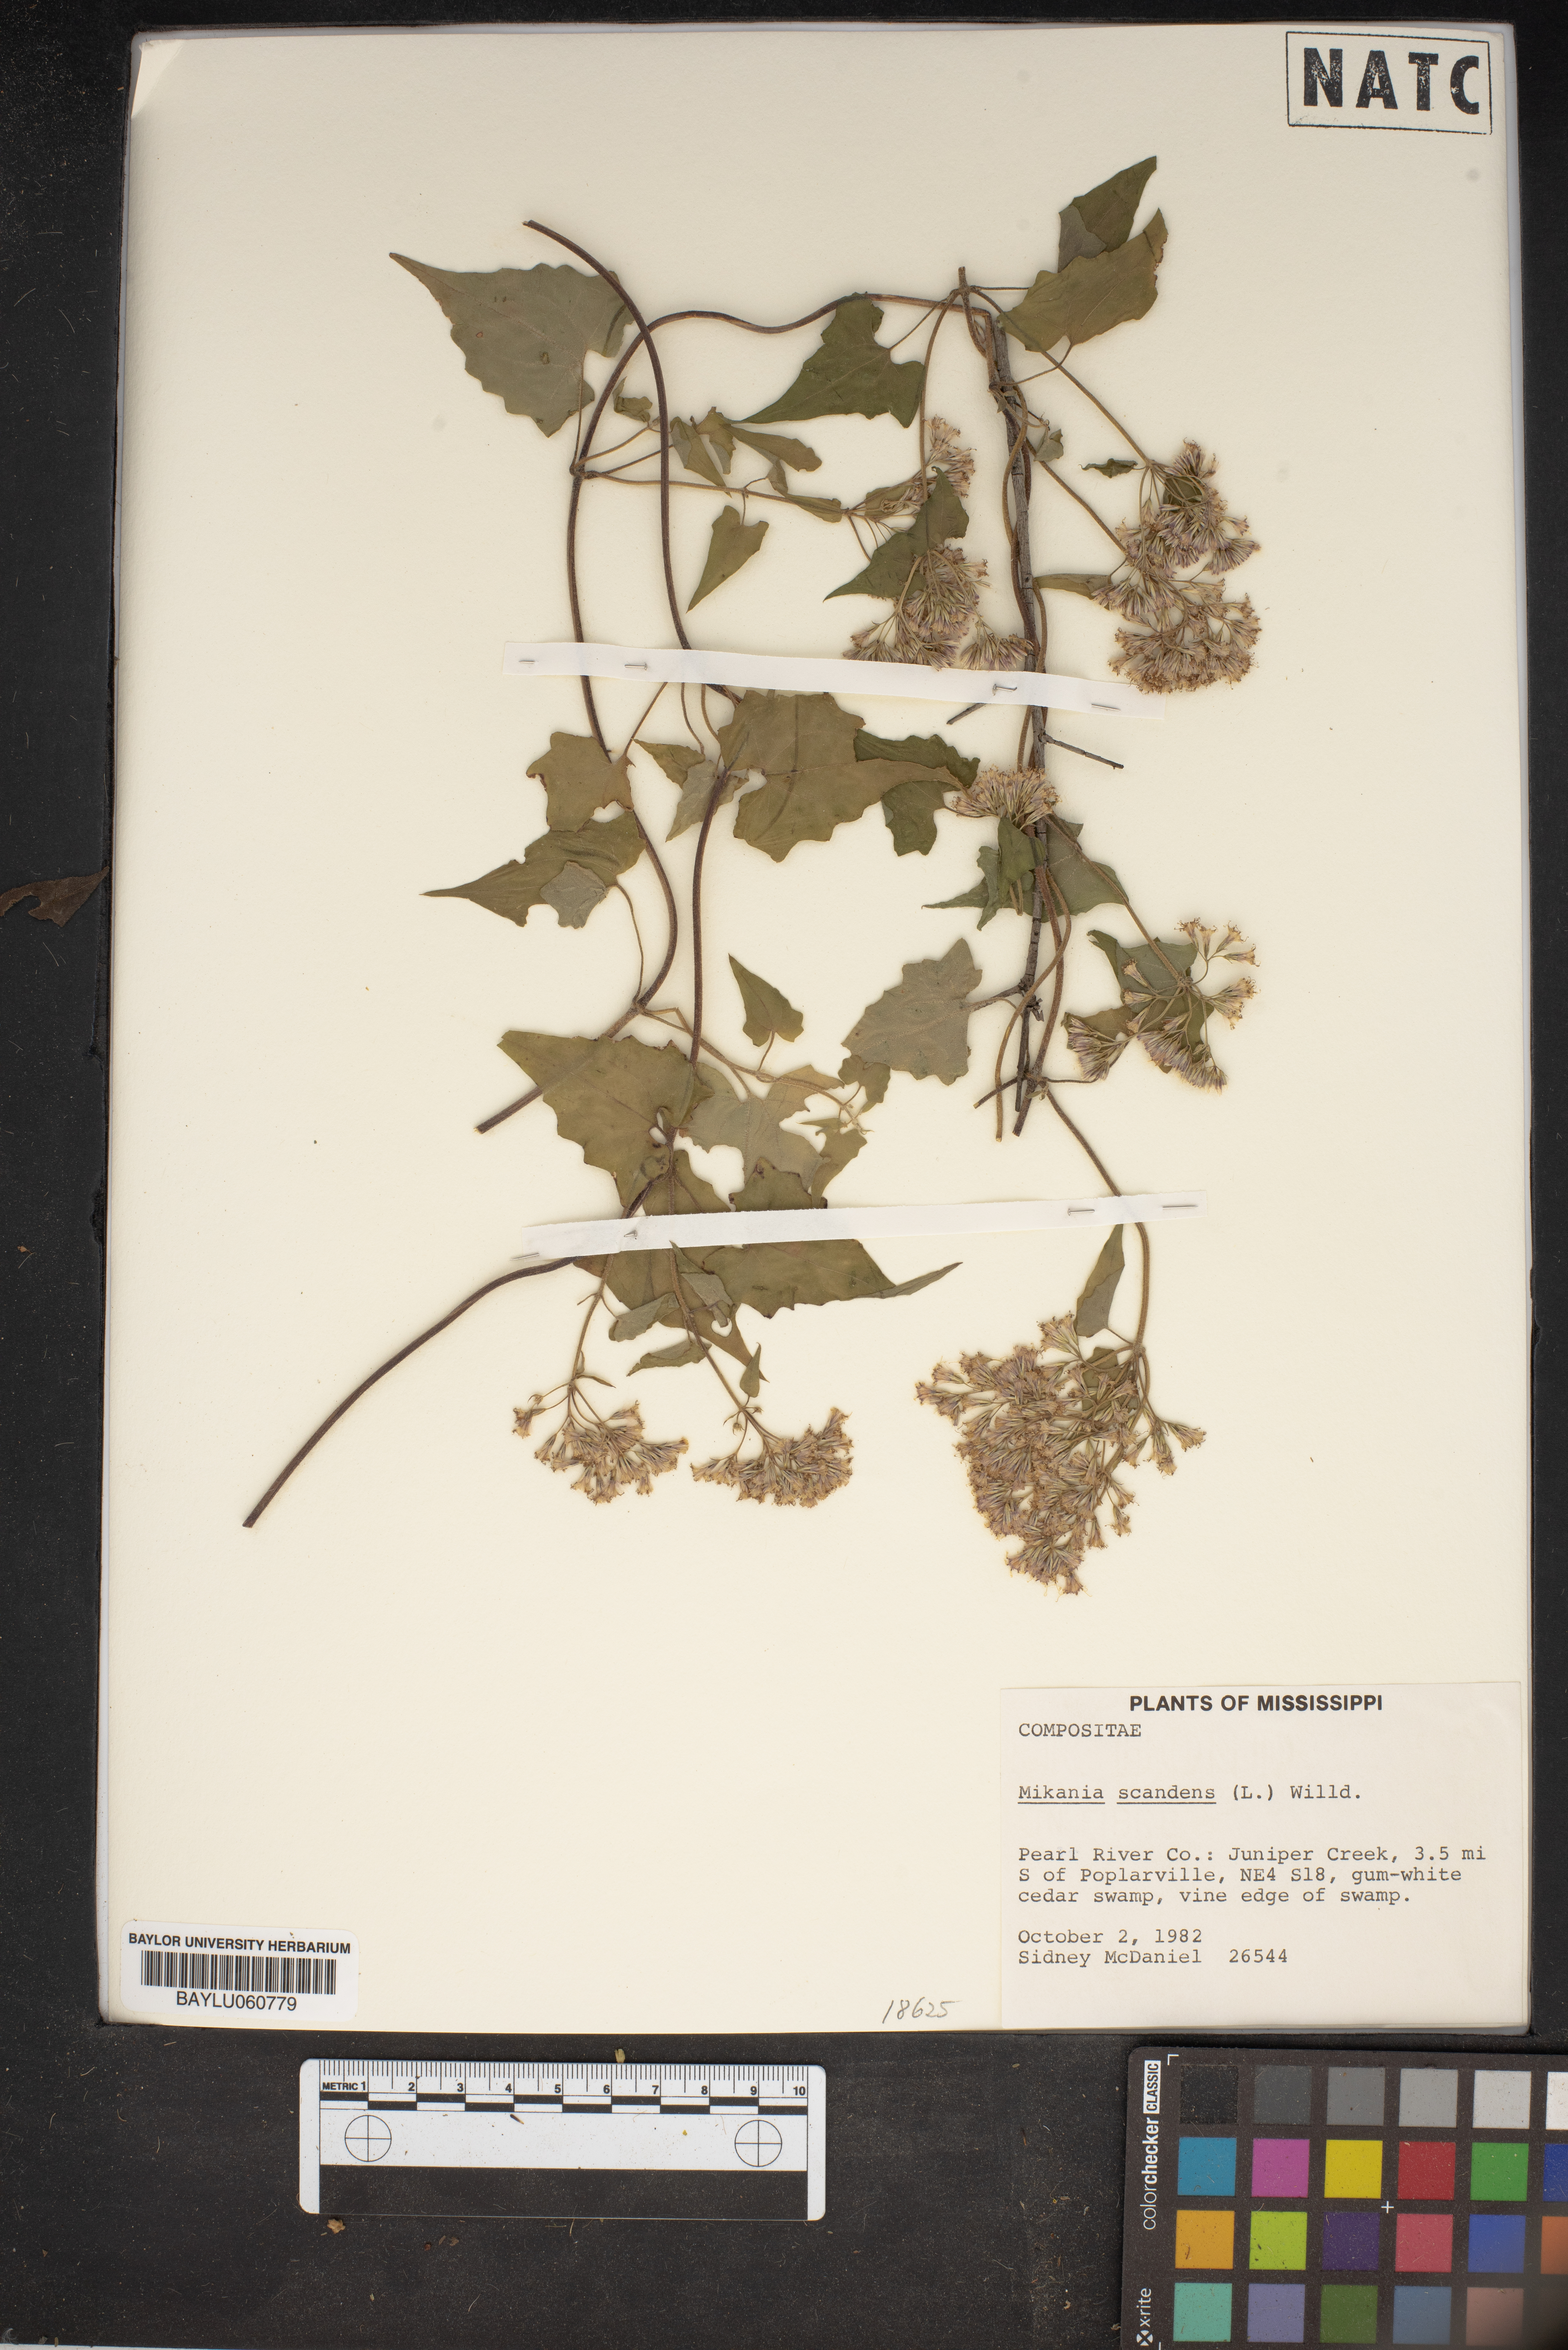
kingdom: Plantae
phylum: Tracheophyta
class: Magnoliopsida
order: Asterales
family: Asteraceae
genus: Mikania
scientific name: Mikania scandens
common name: Climbing hempvine
